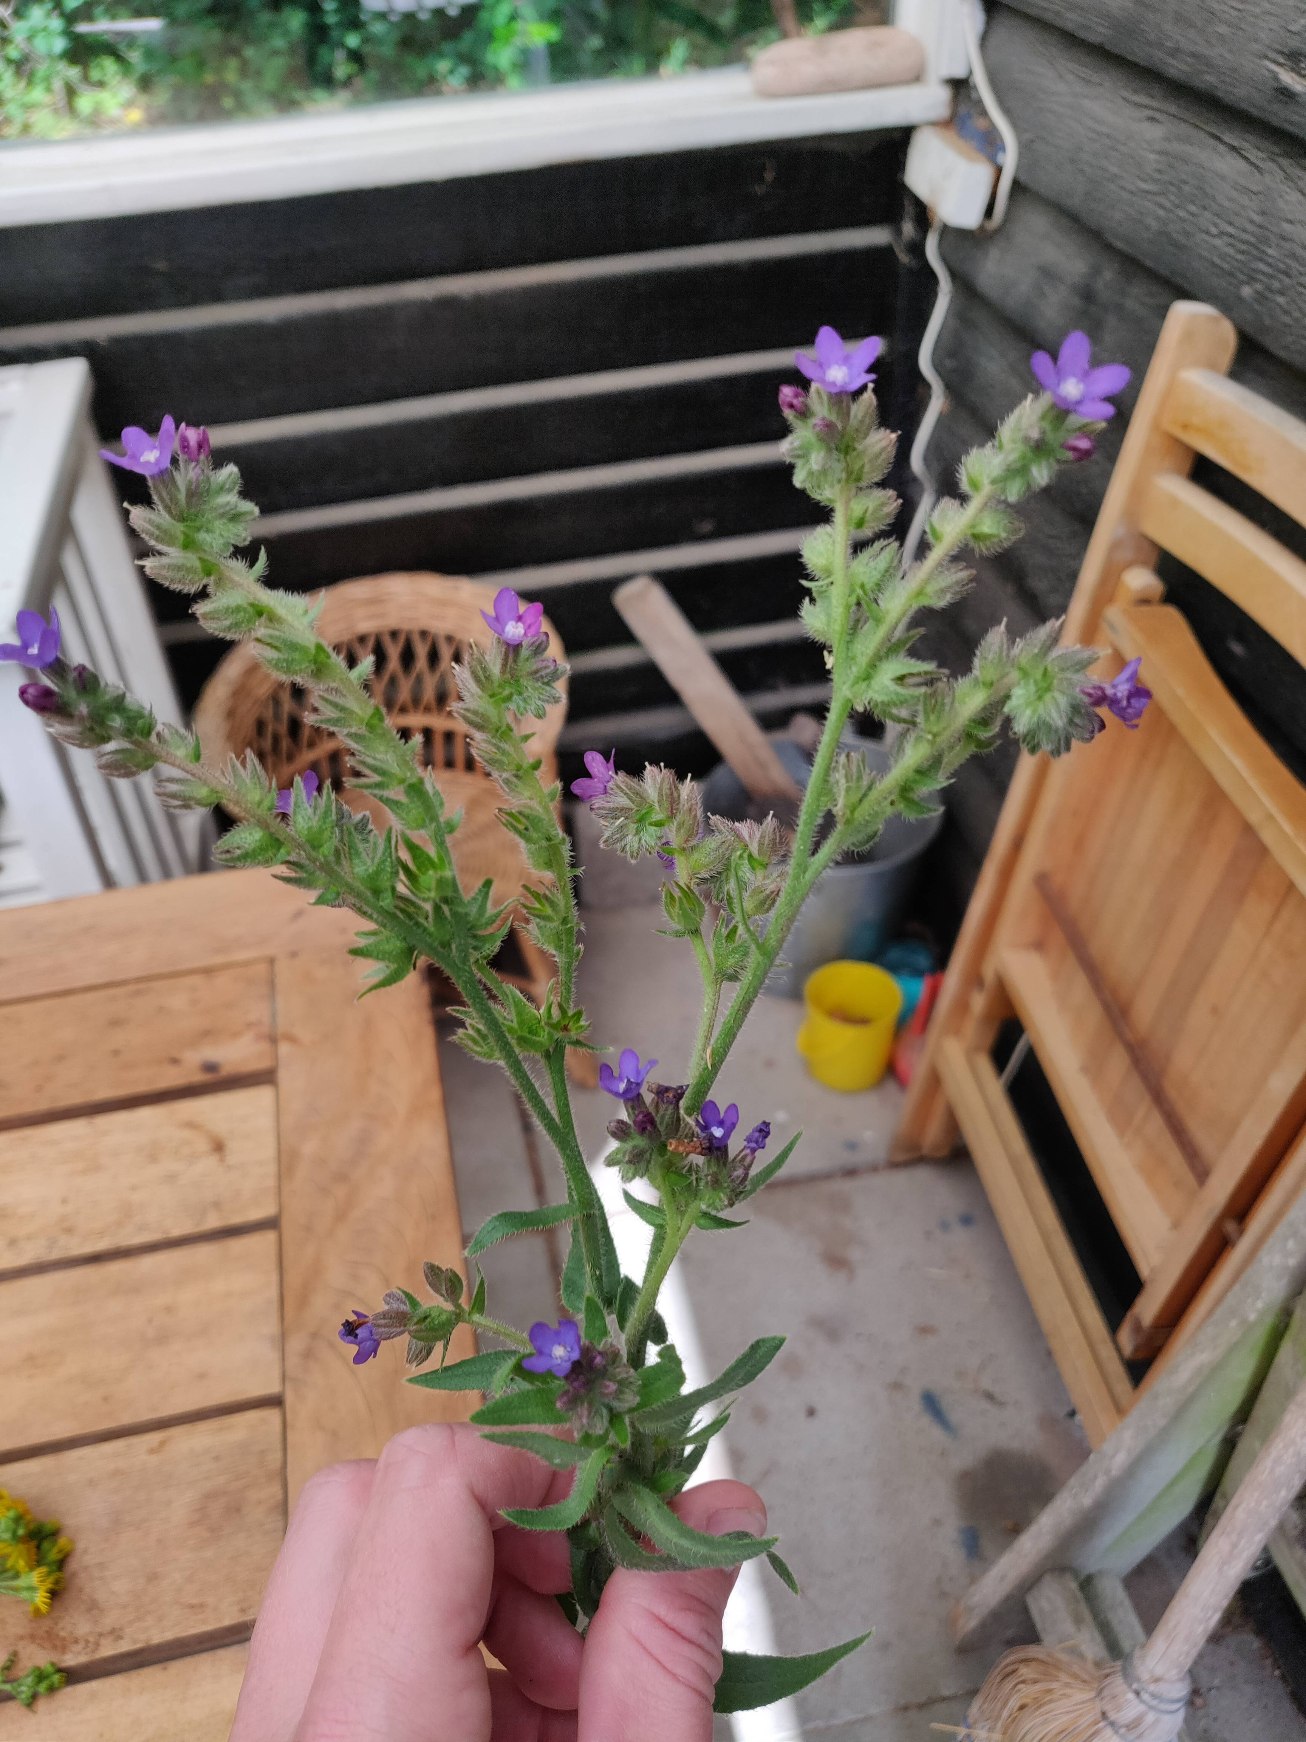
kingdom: Plantae
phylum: Tracheophyta
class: Magnoliopsida
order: Boraginales
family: Boraginaceae
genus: Anchusa
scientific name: Anchusa officinalis
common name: Læge-oksetunge
